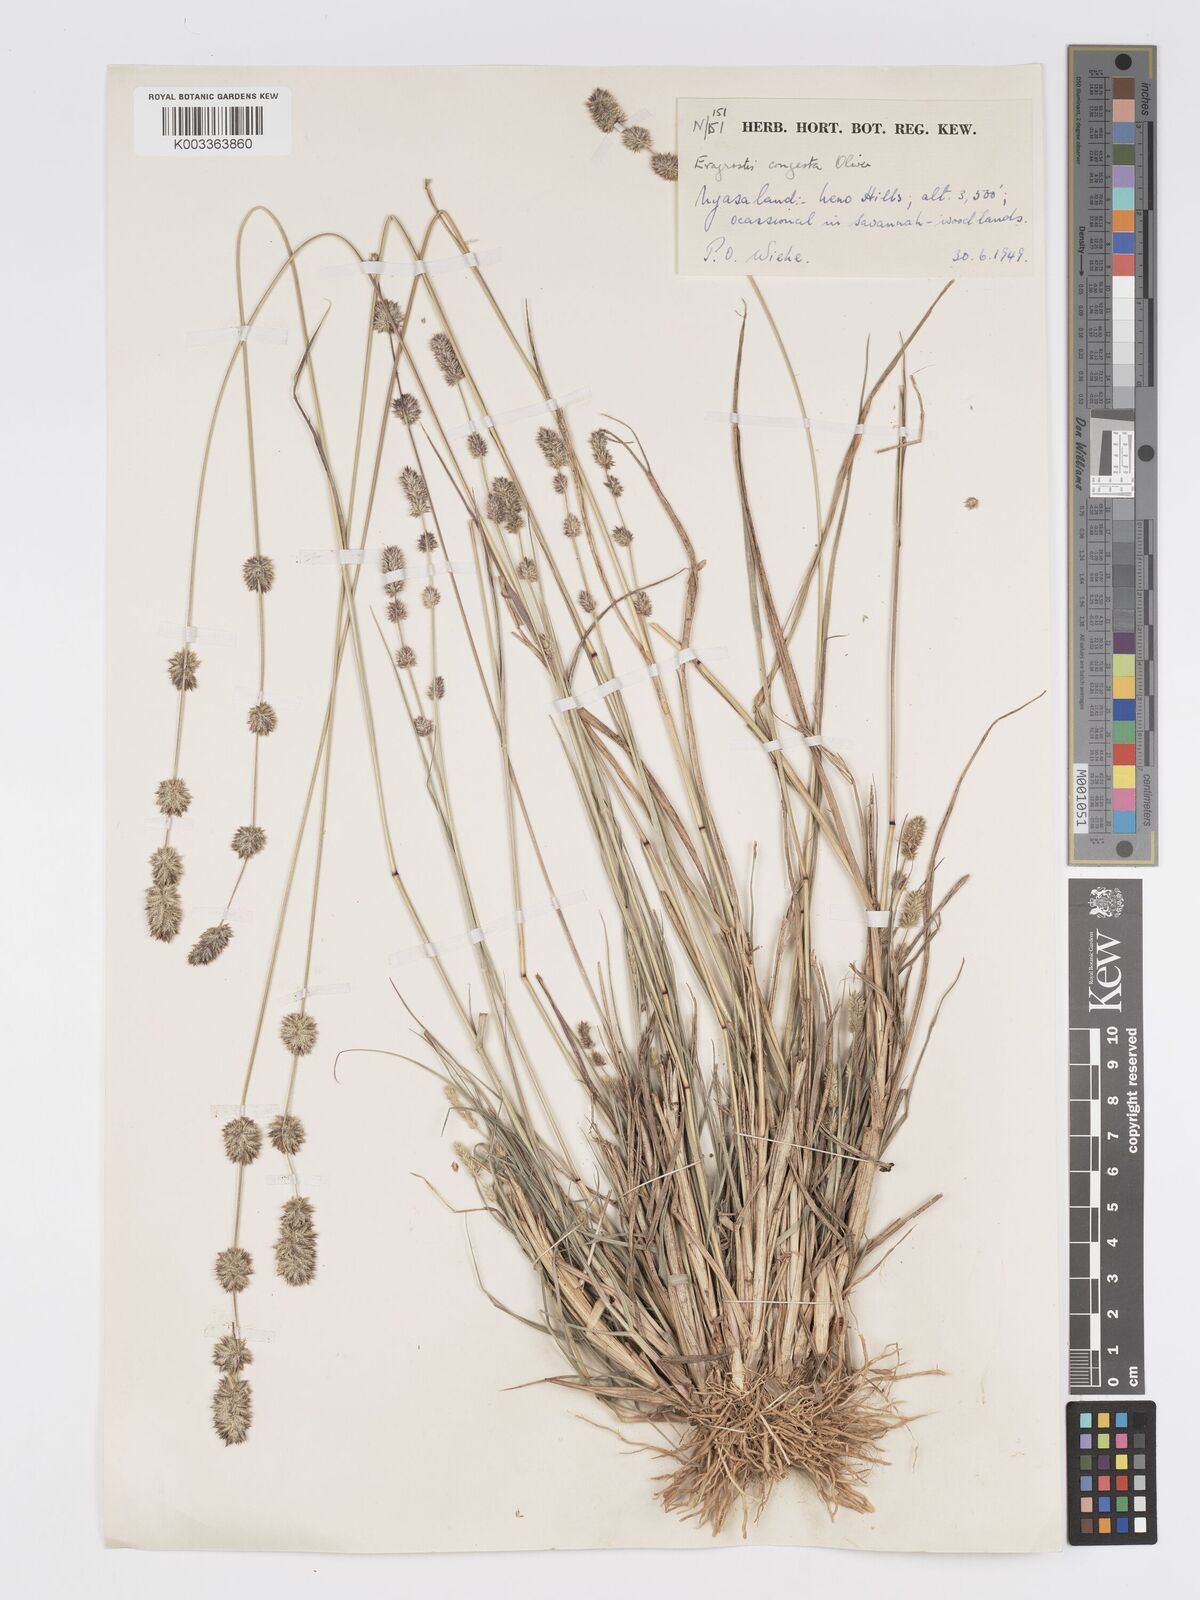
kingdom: Plantae
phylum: Tracheophyta
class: Liliopsida
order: Poales
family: Poaceae
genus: Eragrostis
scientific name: Eragrostis congesta
